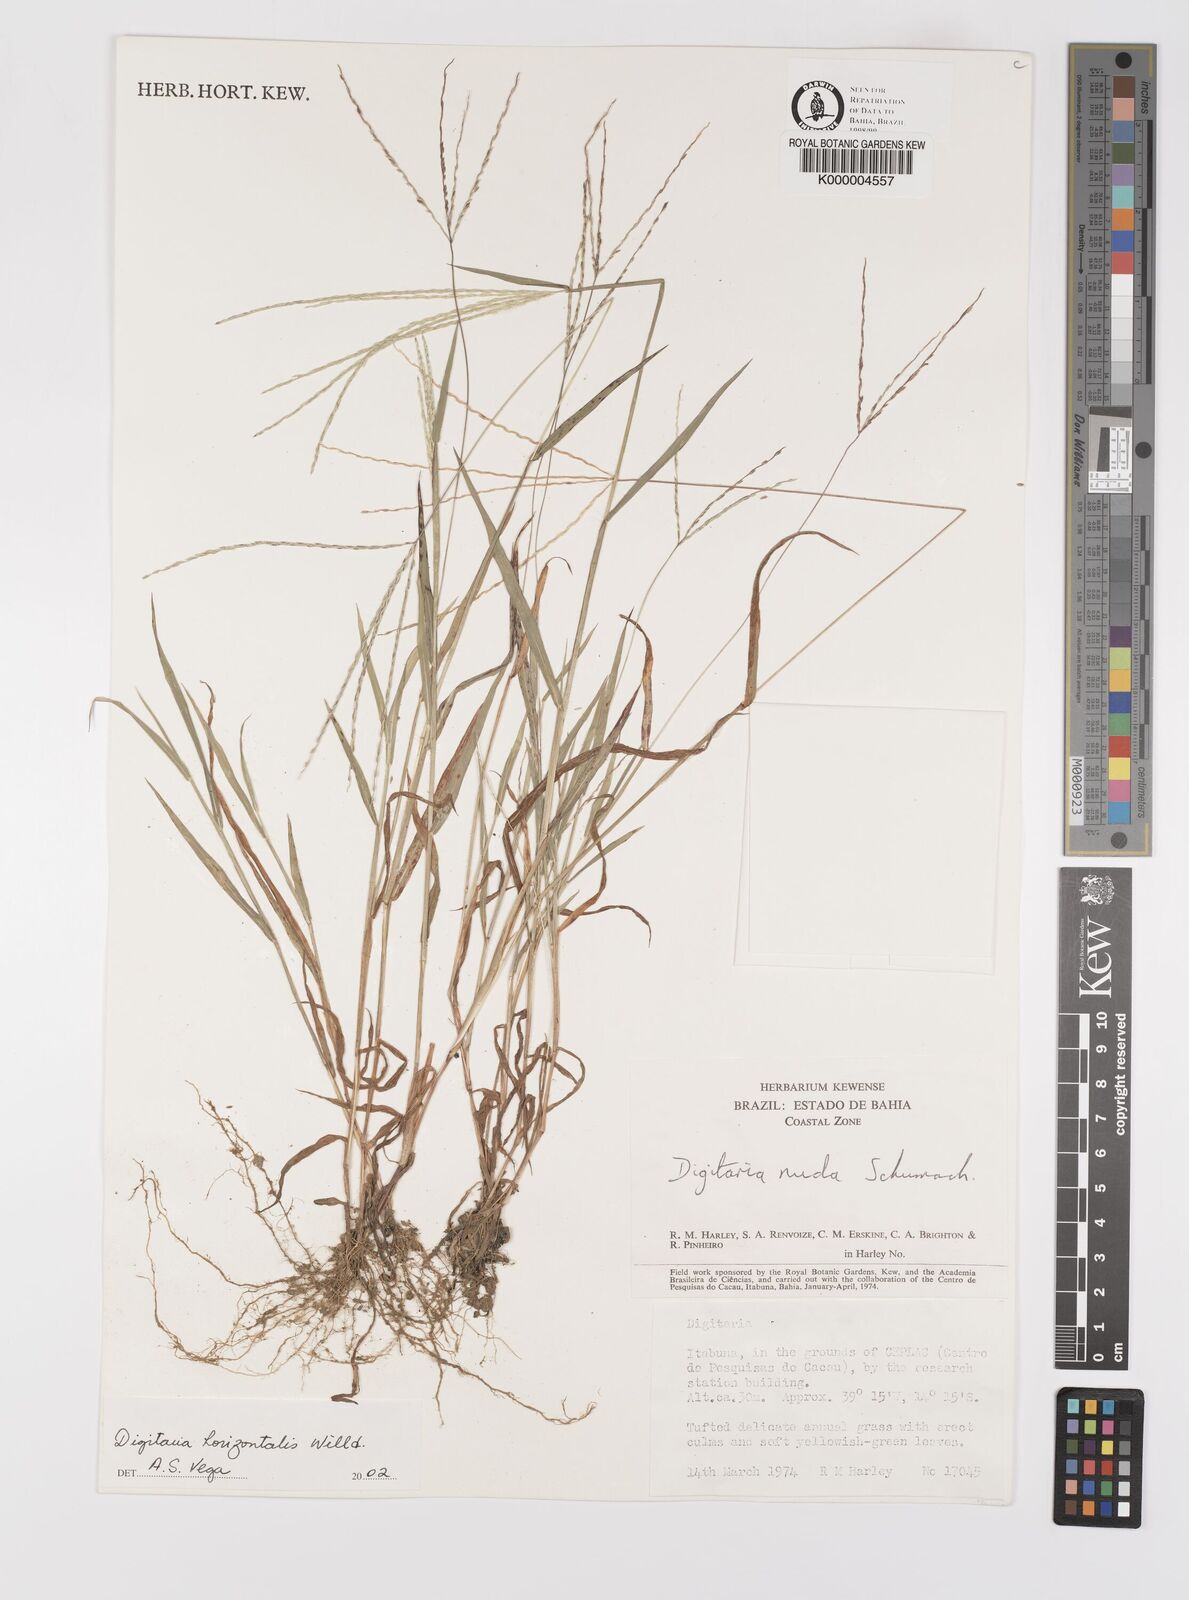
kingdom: Plantae
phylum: Tracheophyta
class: Liliopsida
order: Poales
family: Poaceae
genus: Digitaria
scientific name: Digitaria nuda
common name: Naked crabgrass
